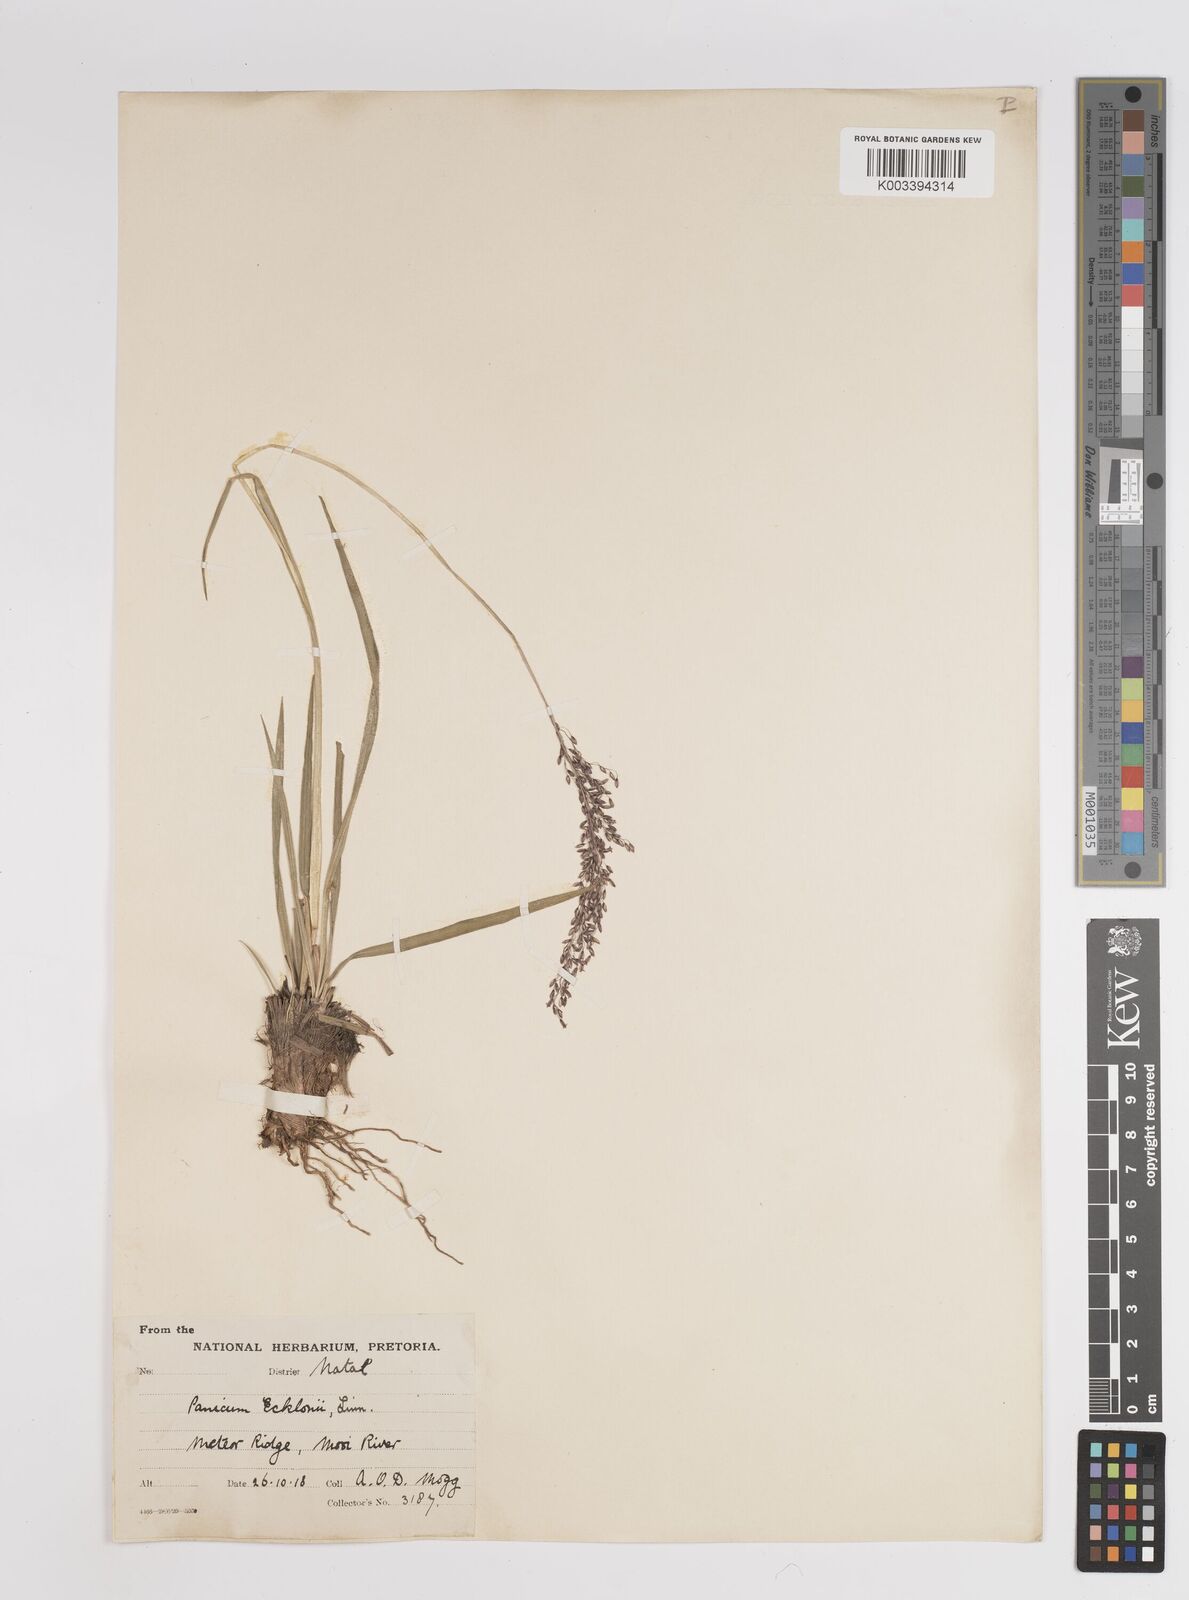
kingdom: Plantae
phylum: Tracheophyta
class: Liliopsida
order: Poales
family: Poaceae
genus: Adenochloa
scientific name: Adenochloa ecklonii
